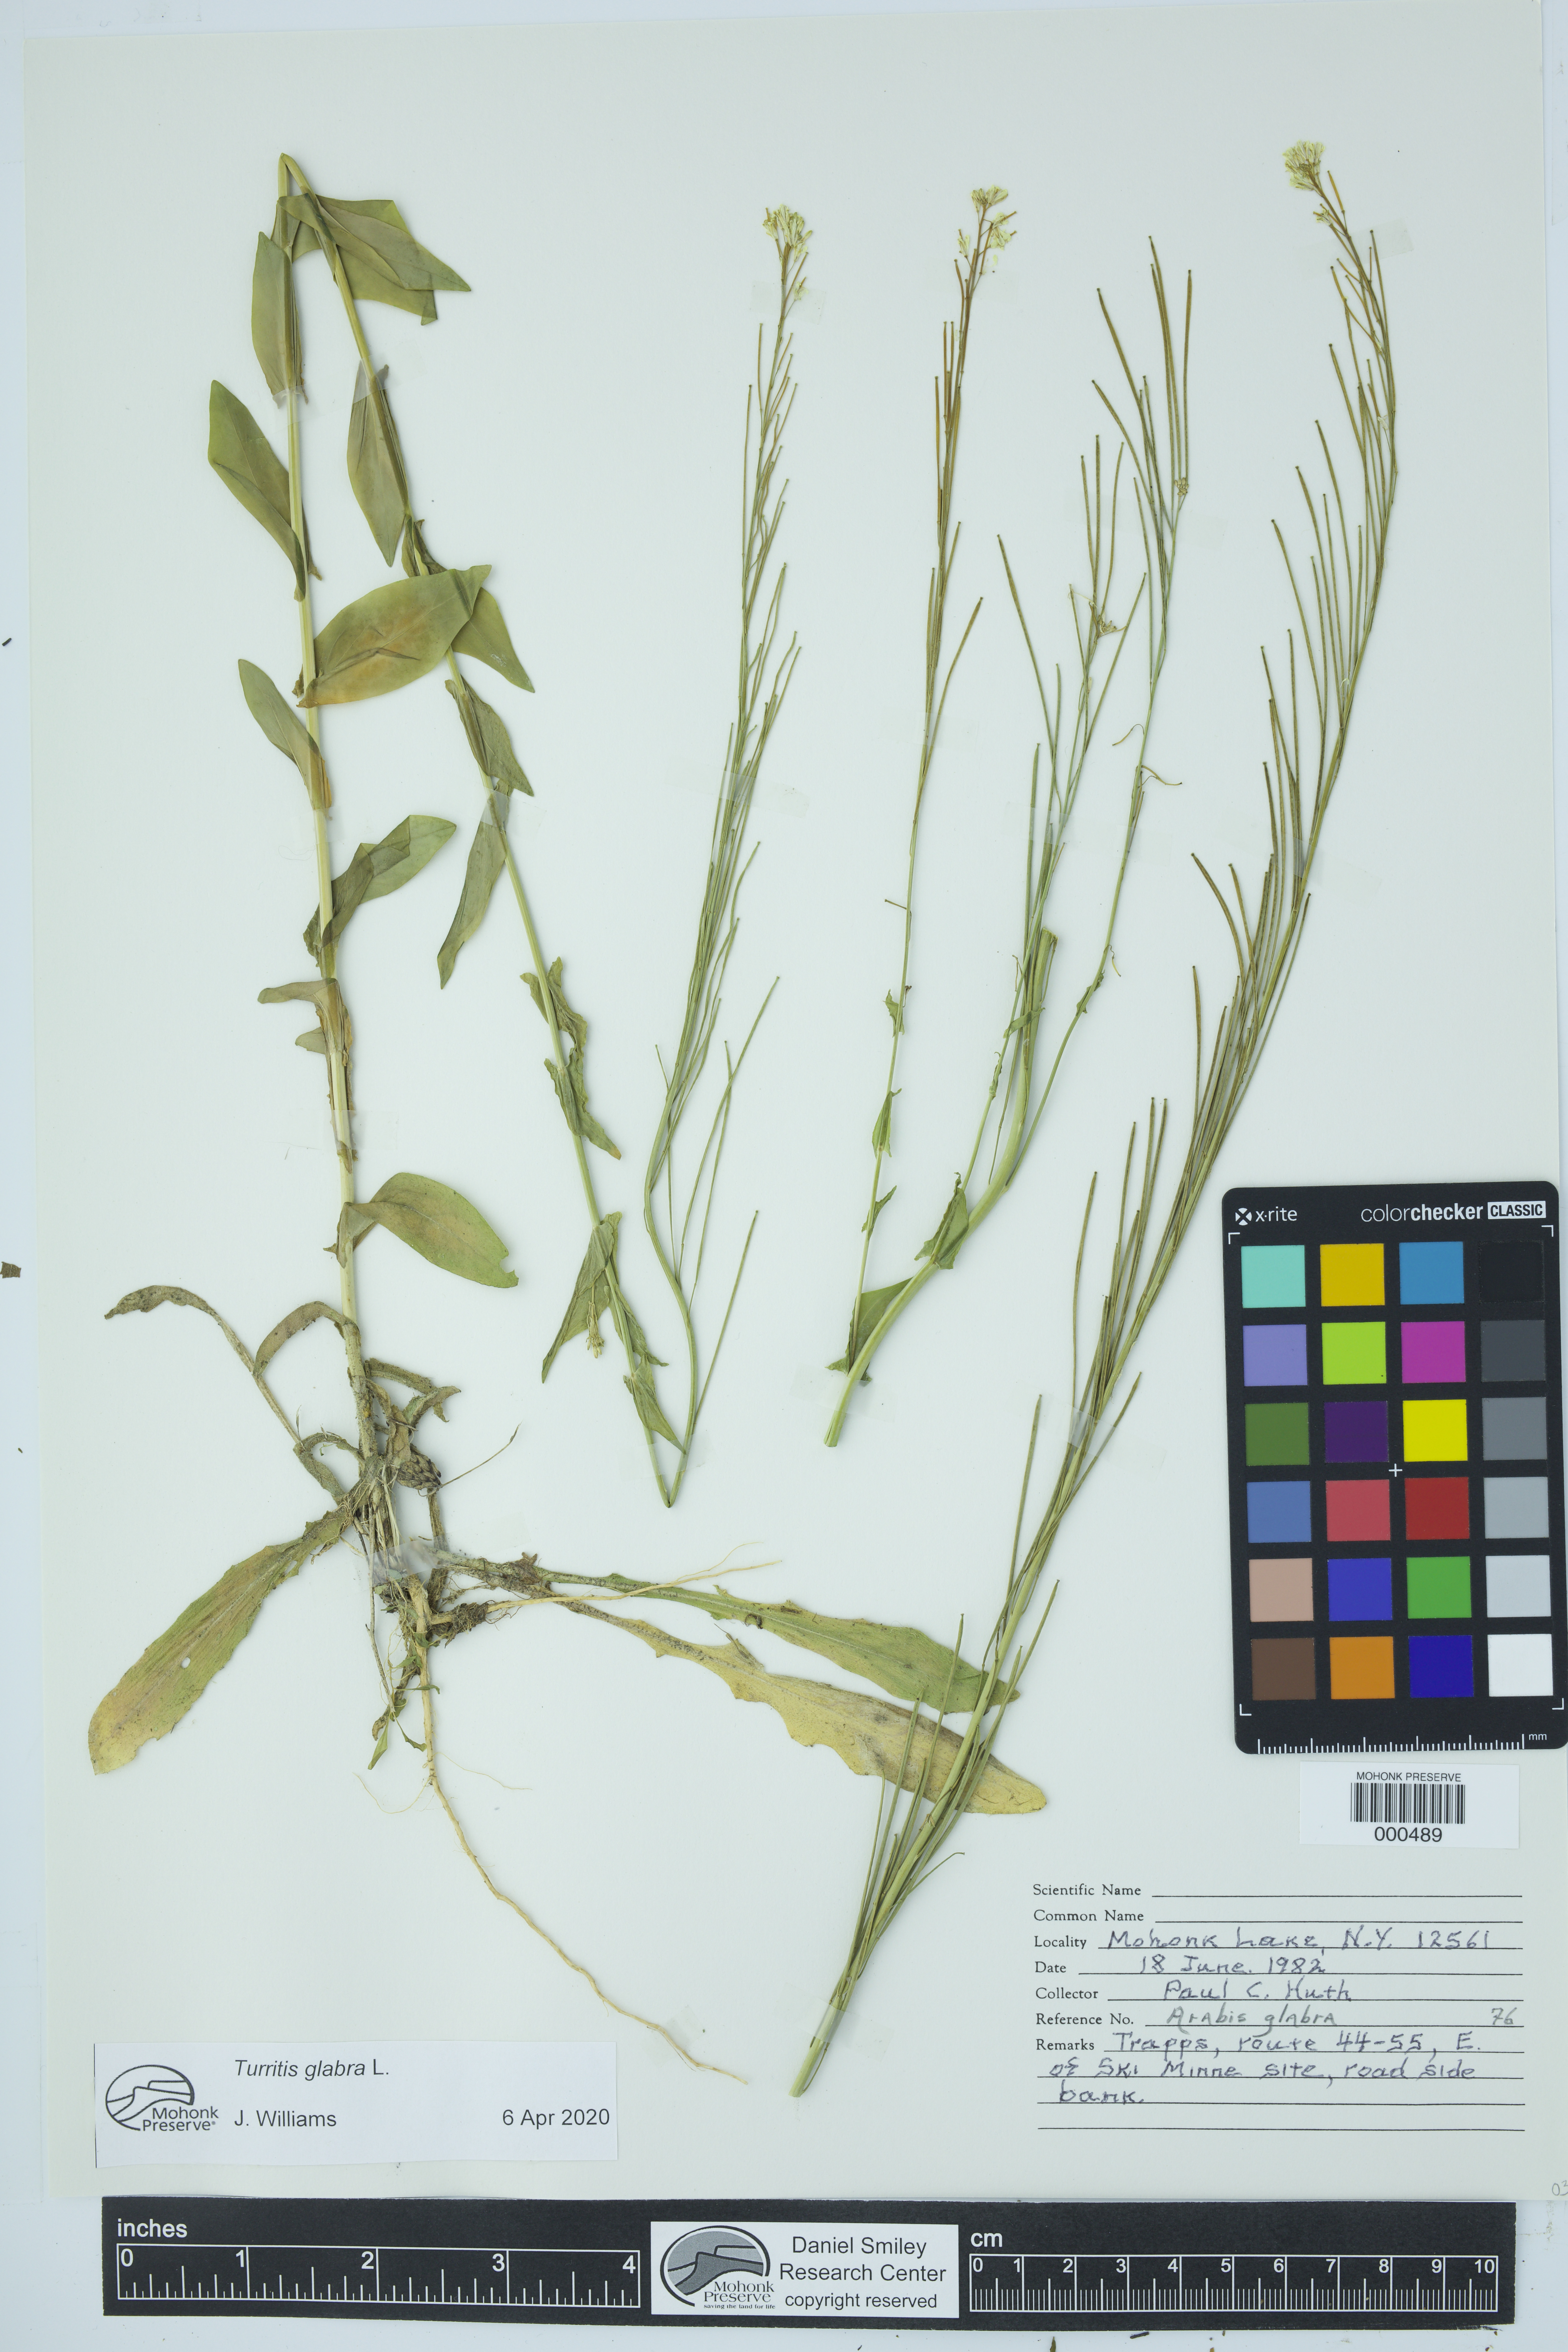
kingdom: Plantae
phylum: Tracheophyta
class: Magnoliopsida
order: Brassicales
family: Brassicaceae
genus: Turritis
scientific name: Turritis glabra
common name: Tower rockcress
